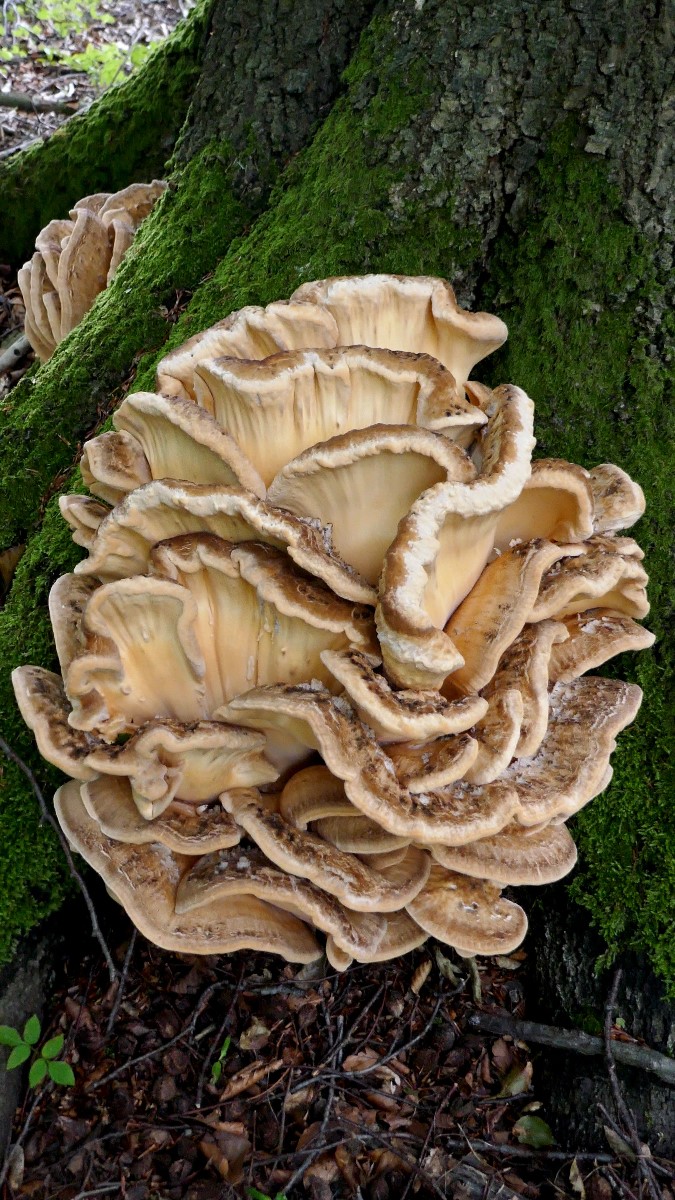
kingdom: Fungi
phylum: Basidiomycota
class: Agaricomycetes
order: Polyporales
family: Meripilaceae
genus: Meripilus
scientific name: Meripilus giganteus
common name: kæmpeporesvamp
